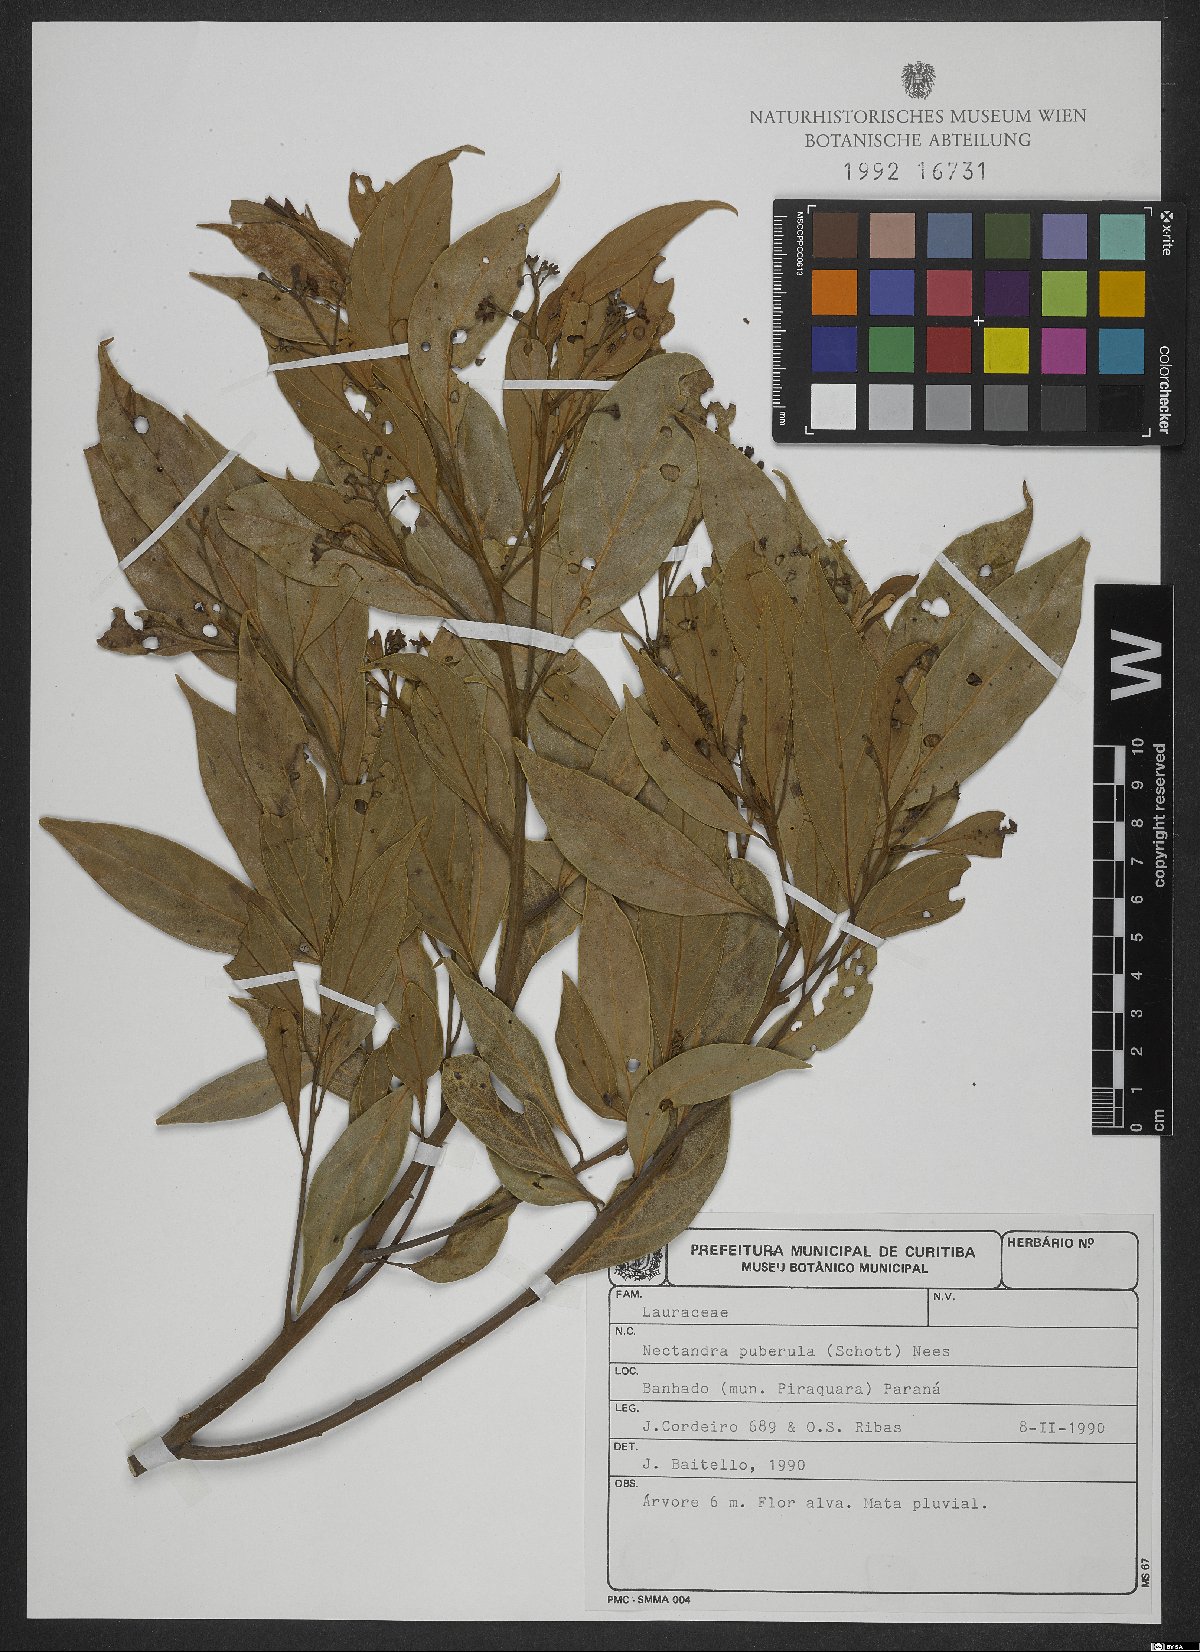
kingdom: Plantae
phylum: Tracheophyta
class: Magnoliopsida
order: Laurales
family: Lauraceae
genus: Nectandra
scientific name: Nectandra puberula
